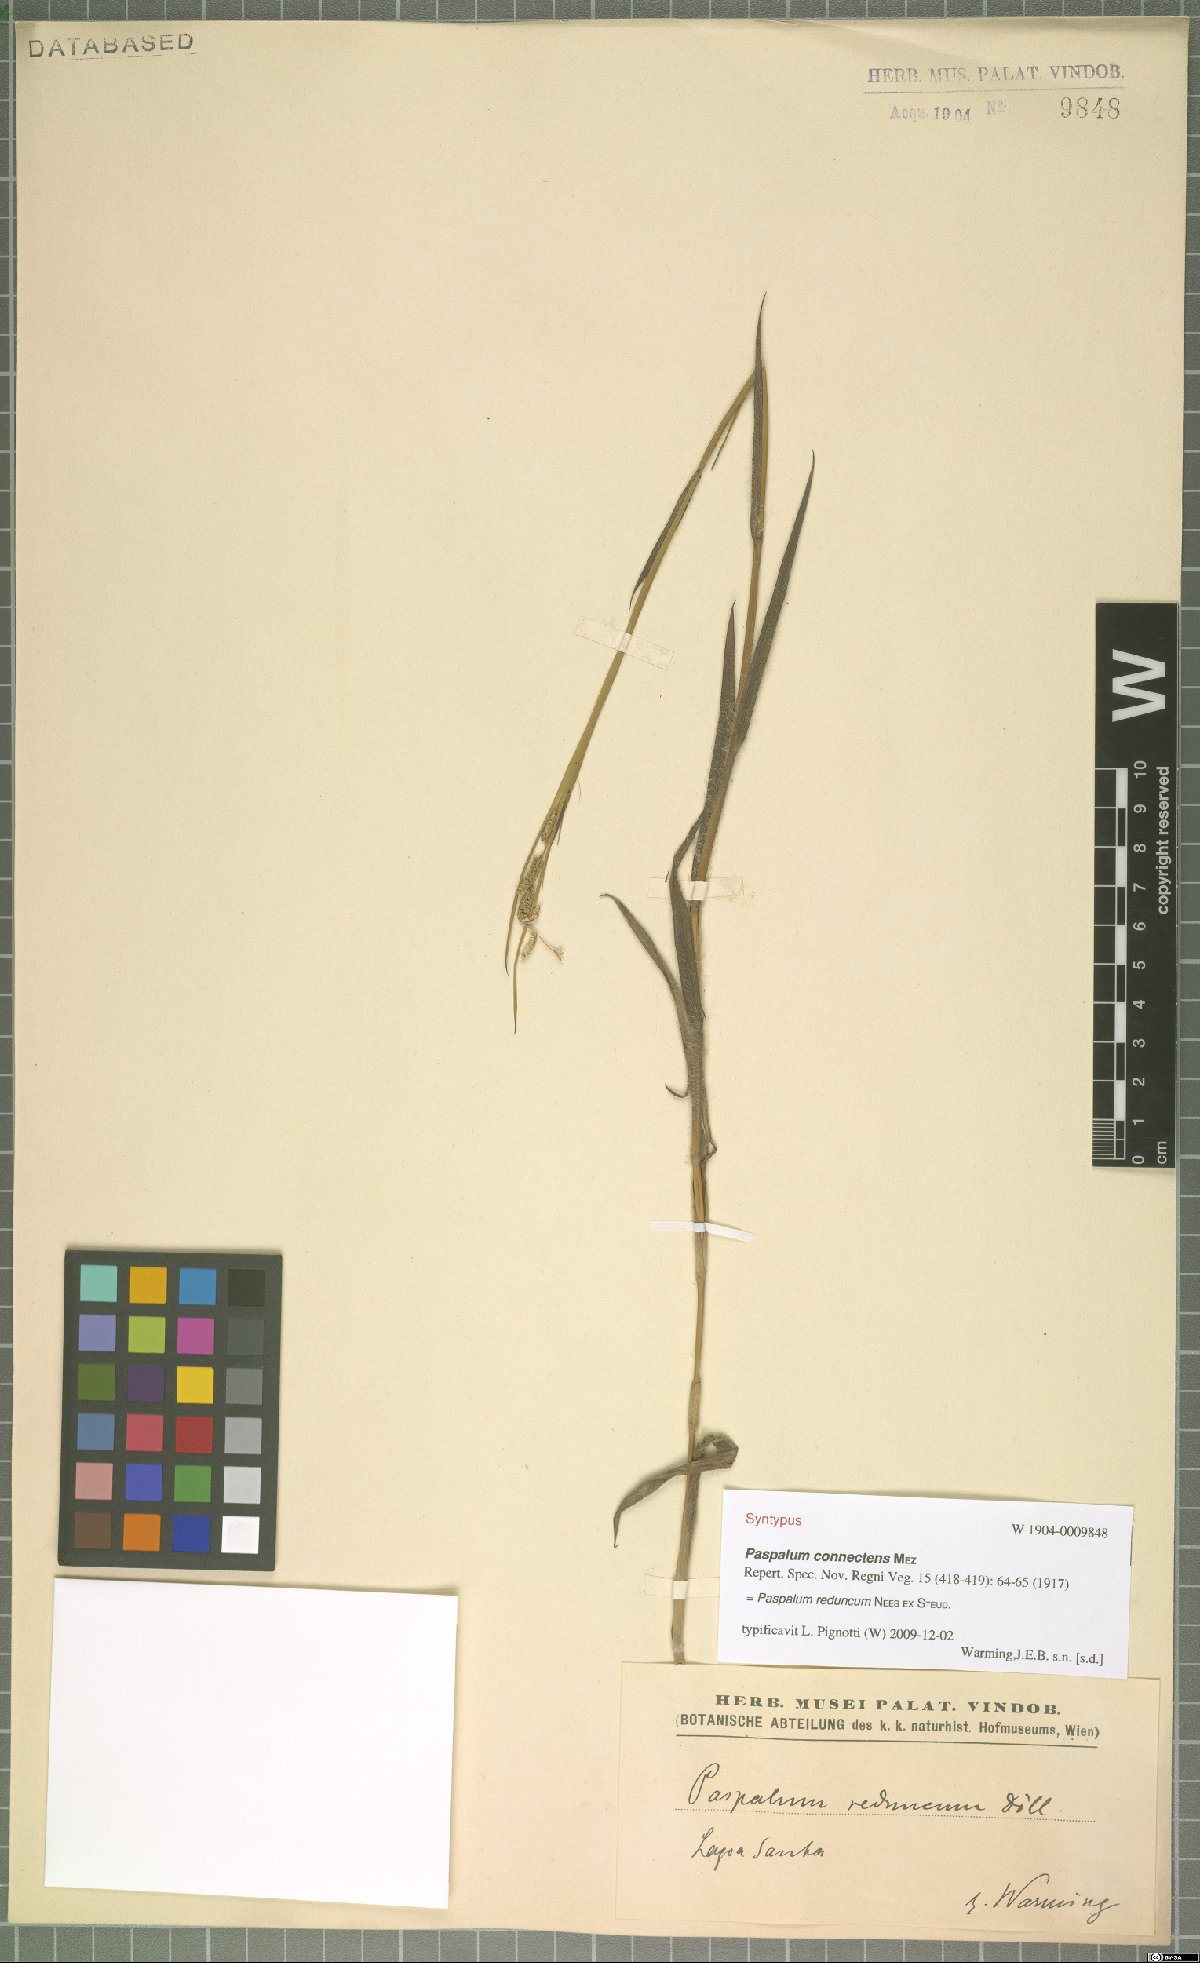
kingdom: Plantae
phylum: Tracheophyta
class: Liliopsida
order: Poales
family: Poaceae
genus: Paspalum
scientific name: Paspalum reduncum
